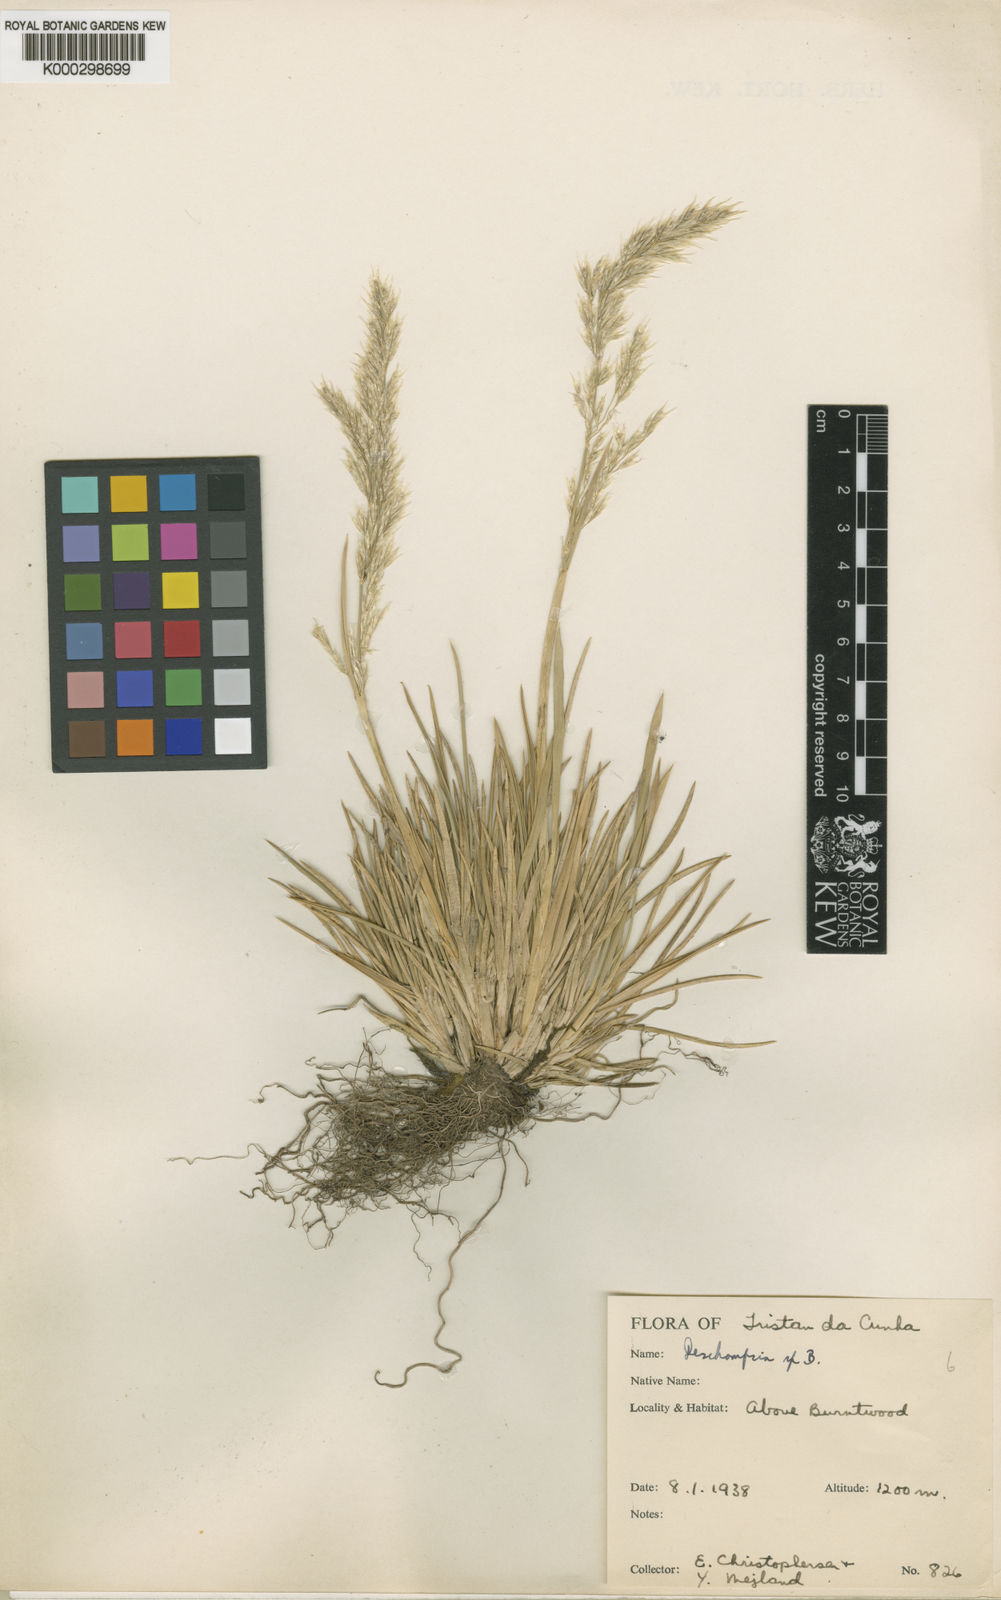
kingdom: Plantae
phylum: Tracheophyta
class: Liliopsida
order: Poales
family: Poaceae
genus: Deschampsia
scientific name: Deschampsia
